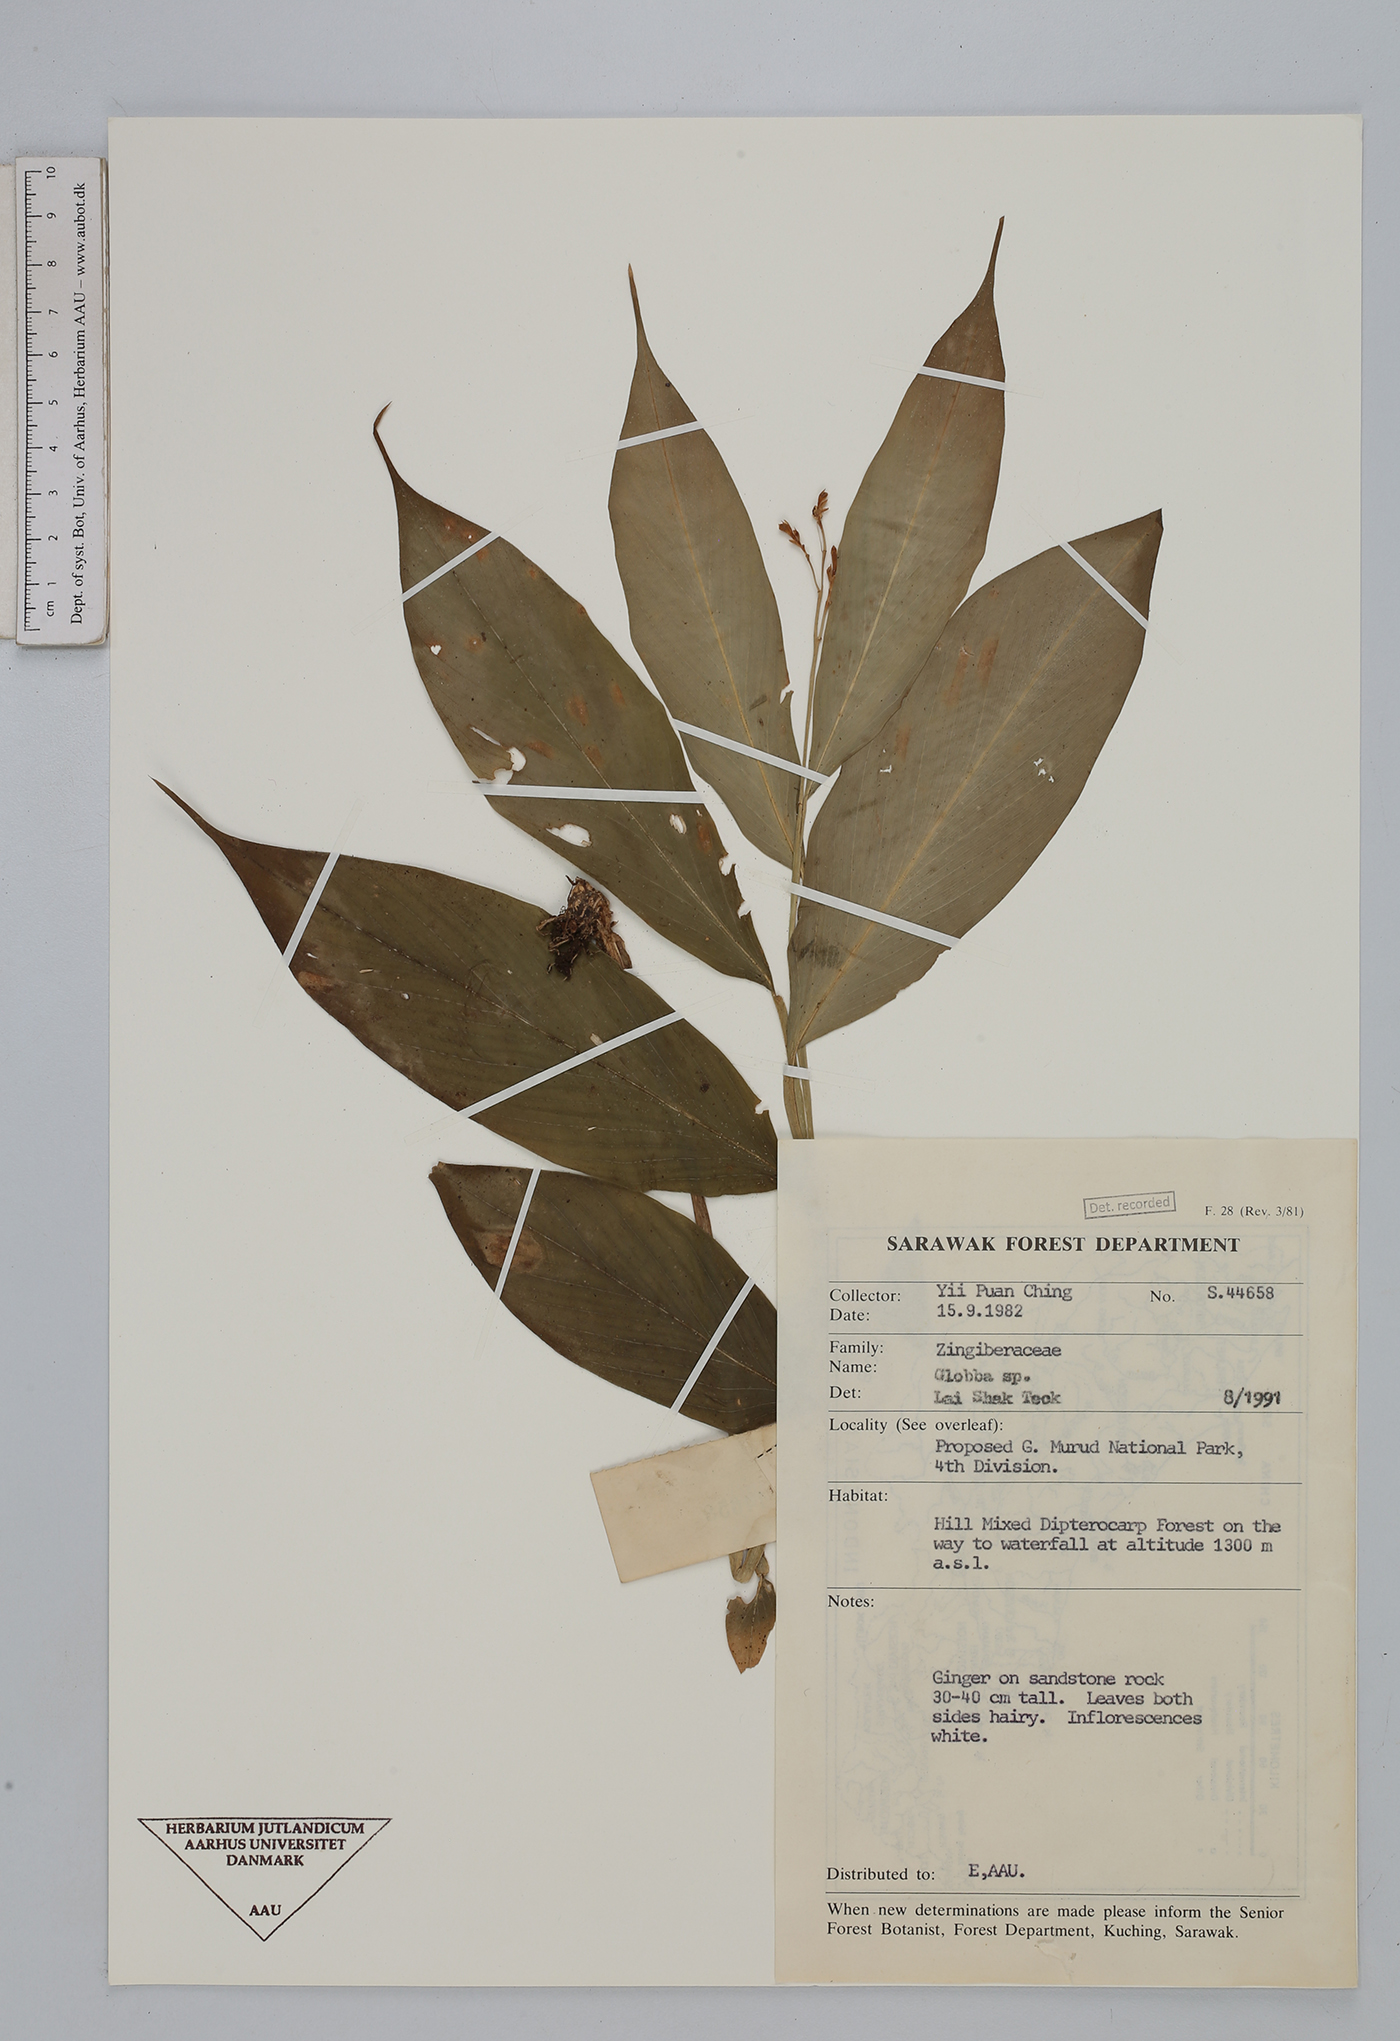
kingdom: Plantae
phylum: Tracheophyta
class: Liliopsida
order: Zingiberales
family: Zingiberaceae
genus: Globba
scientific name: Globba
